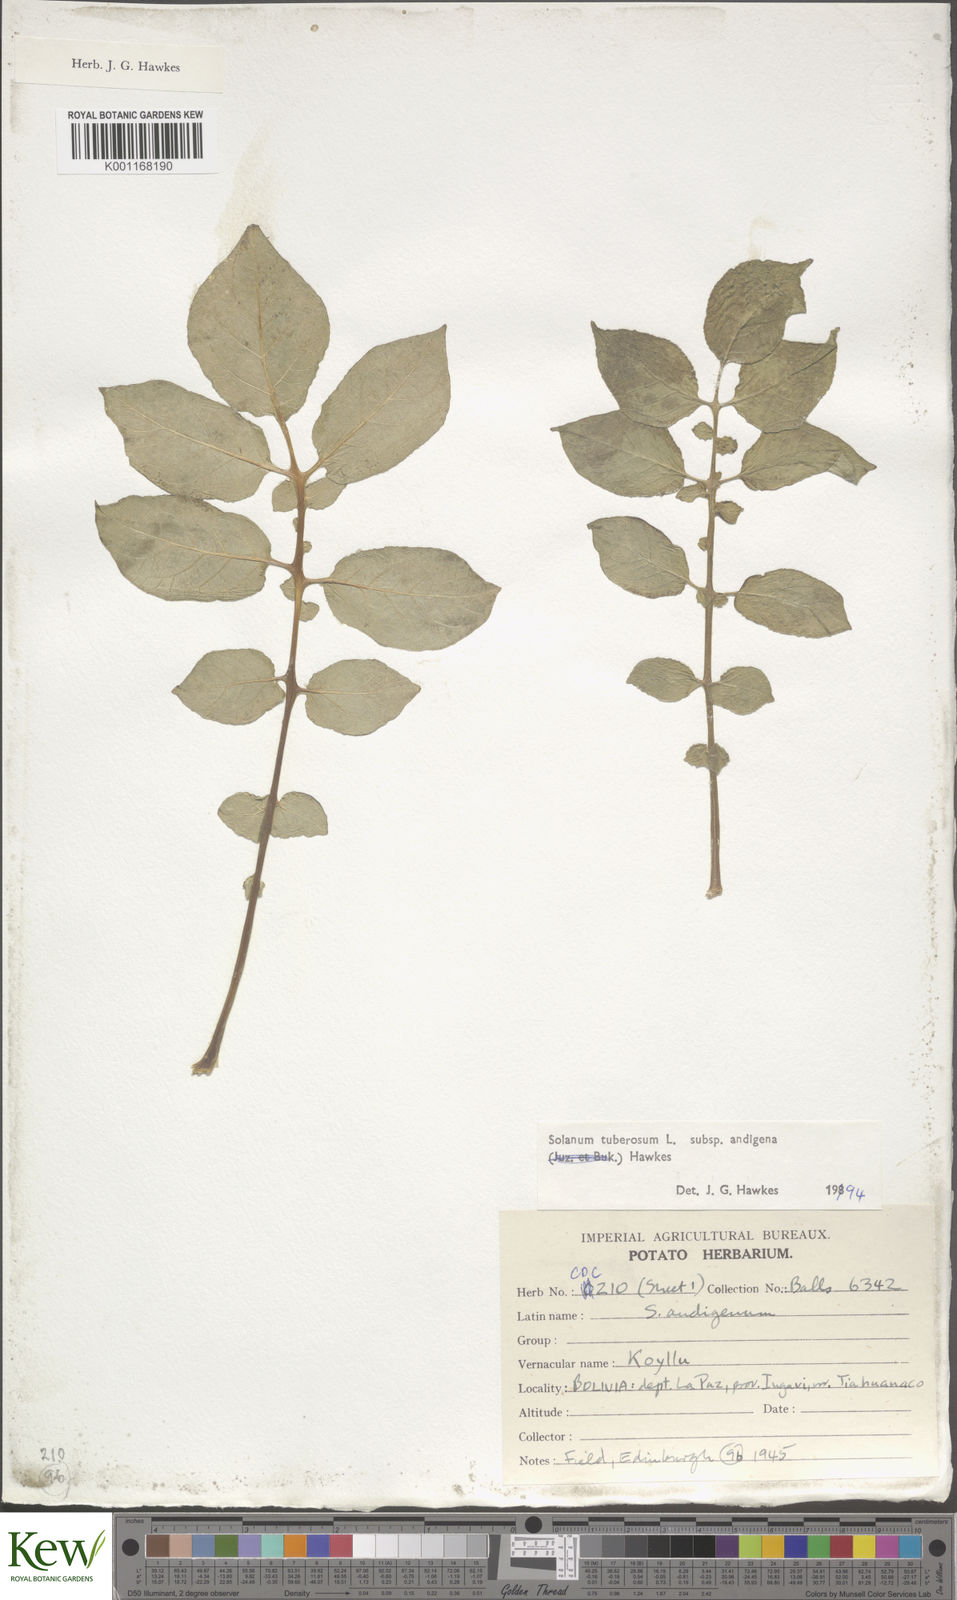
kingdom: Plantae
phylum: Tracheophyta
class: Magnoliopsida
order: Solanales
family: Solanaceae
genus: Solanum
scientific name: Solanum tuberosum
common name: Potato
